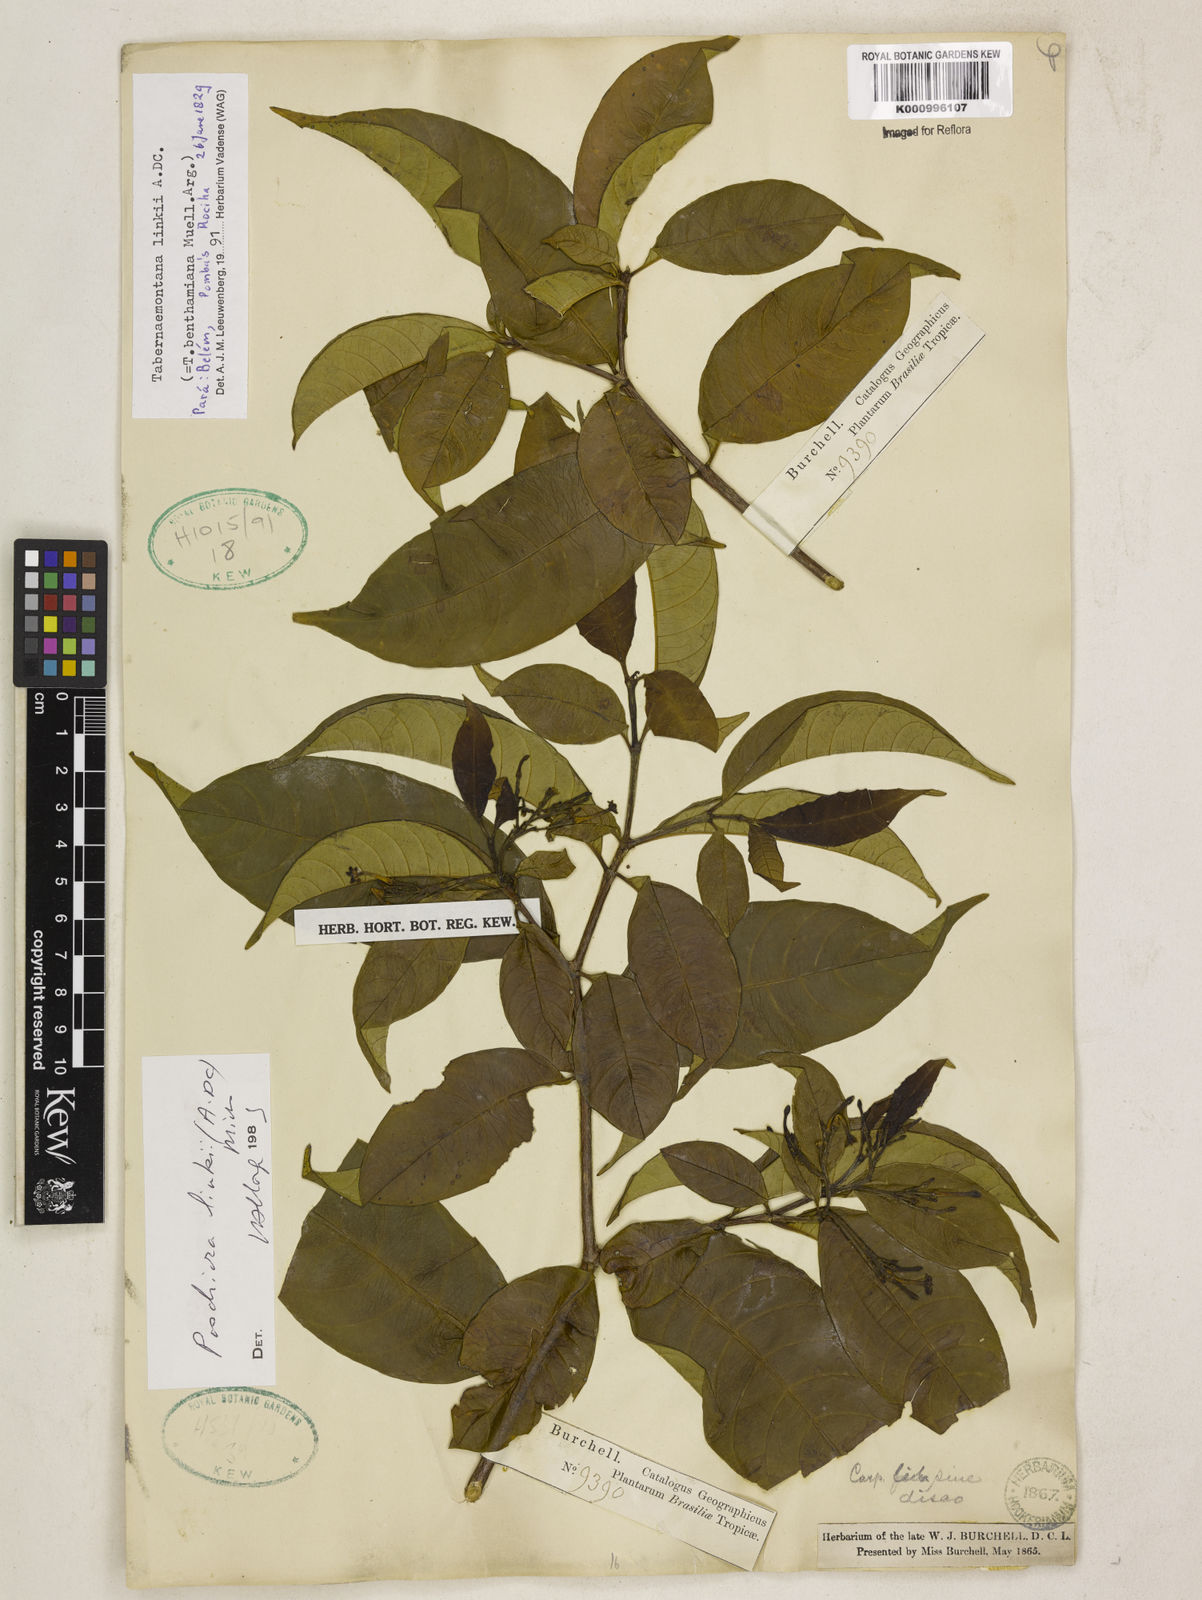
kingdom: Plantae
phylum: Tracheophyta
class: Magnoliopsida
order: Gentianales
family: Apocynaceae
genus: Tabernaemontana
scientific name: Tabernaemontana linkii
